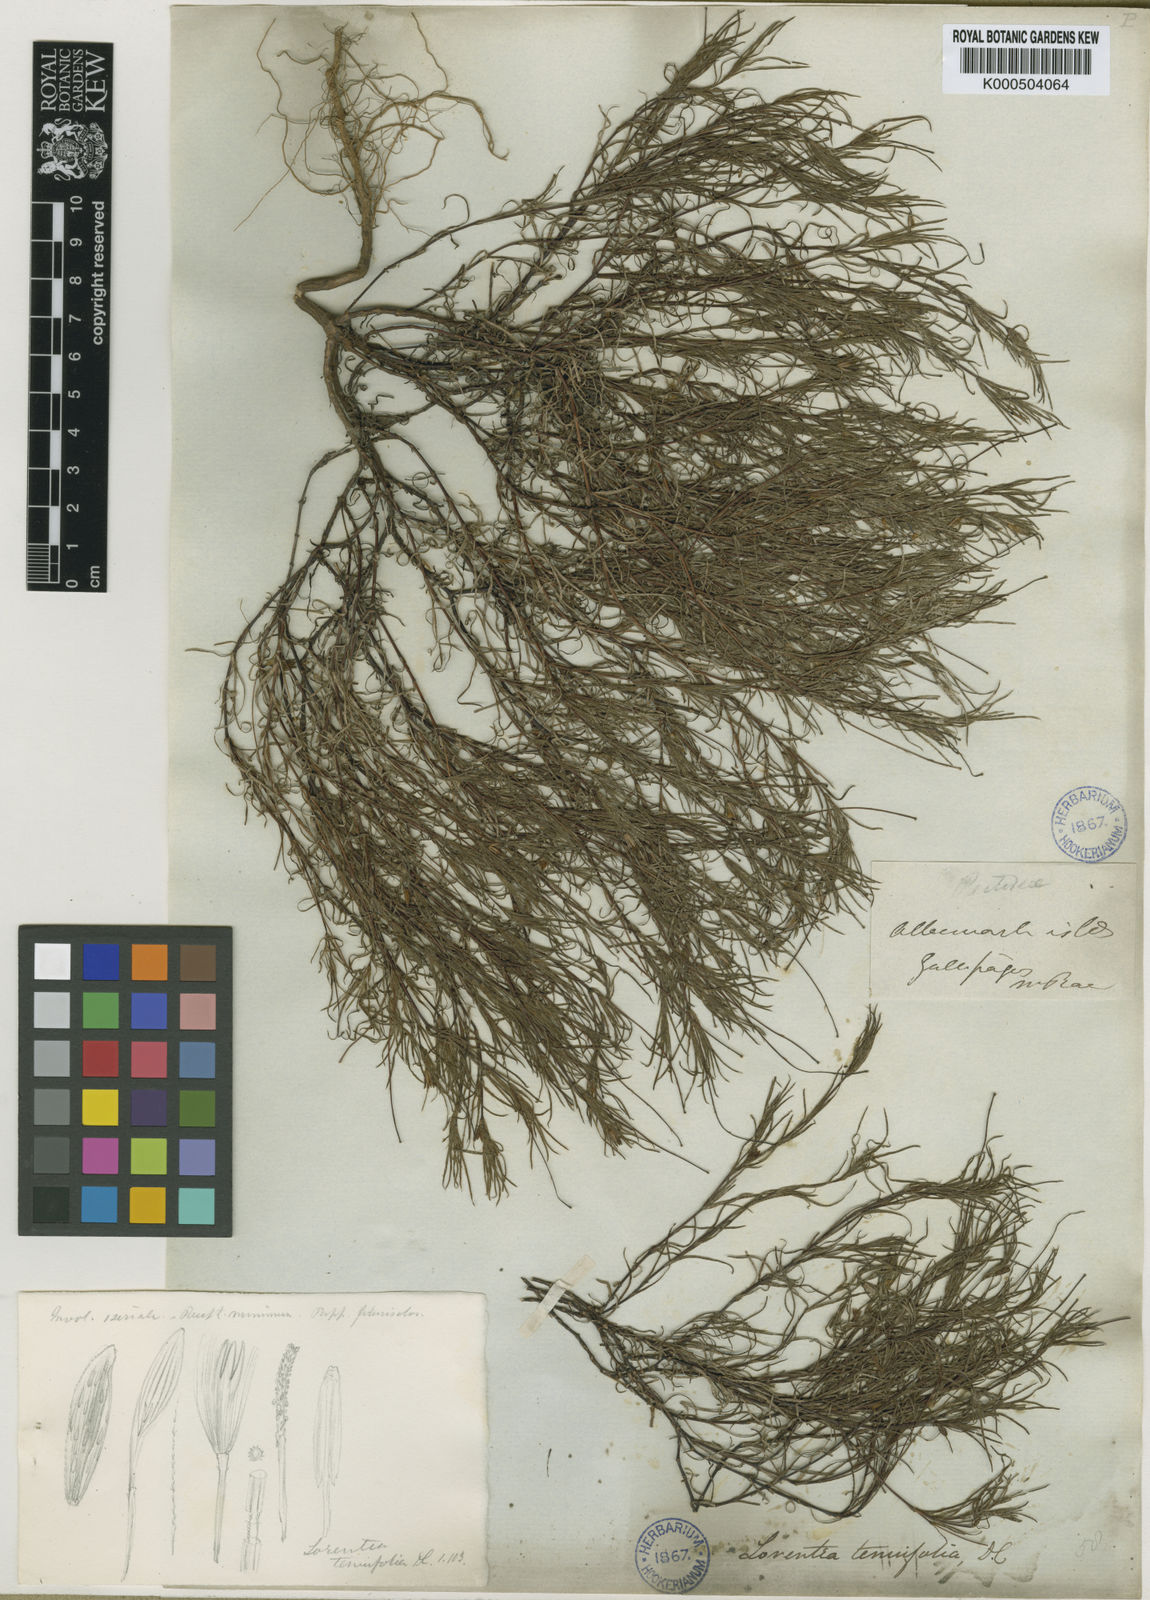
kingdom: Plantae
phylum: Tracheophyta
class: Magnoliopsida
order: Asterales
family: Asteraceae
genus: Pectis
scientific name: Pectis tenuifolia
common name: Oily pectis
